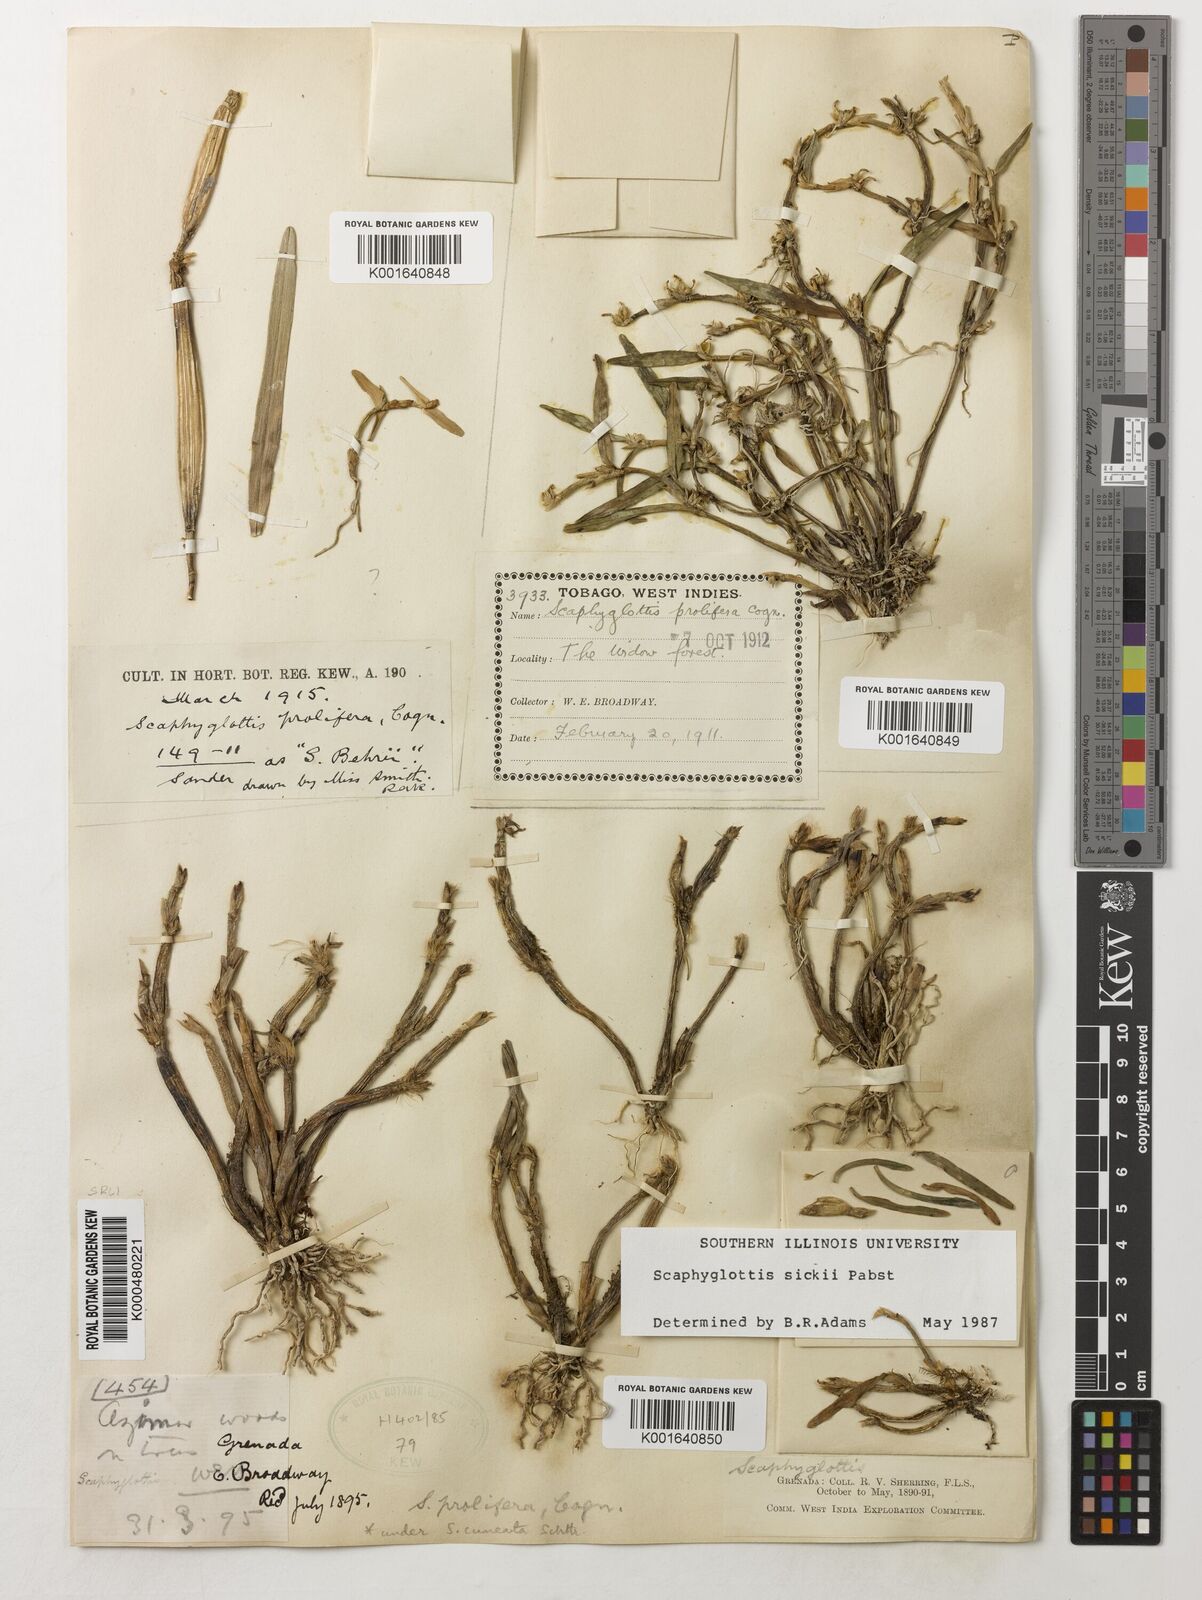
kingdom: Plantae
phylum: Tracheophyta
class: Liliopsida
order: Asparagales
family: Orchidaceae
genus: Scaphyglottis
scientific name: Scaphyglottis sickii
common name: Sicks scaphyglottis
